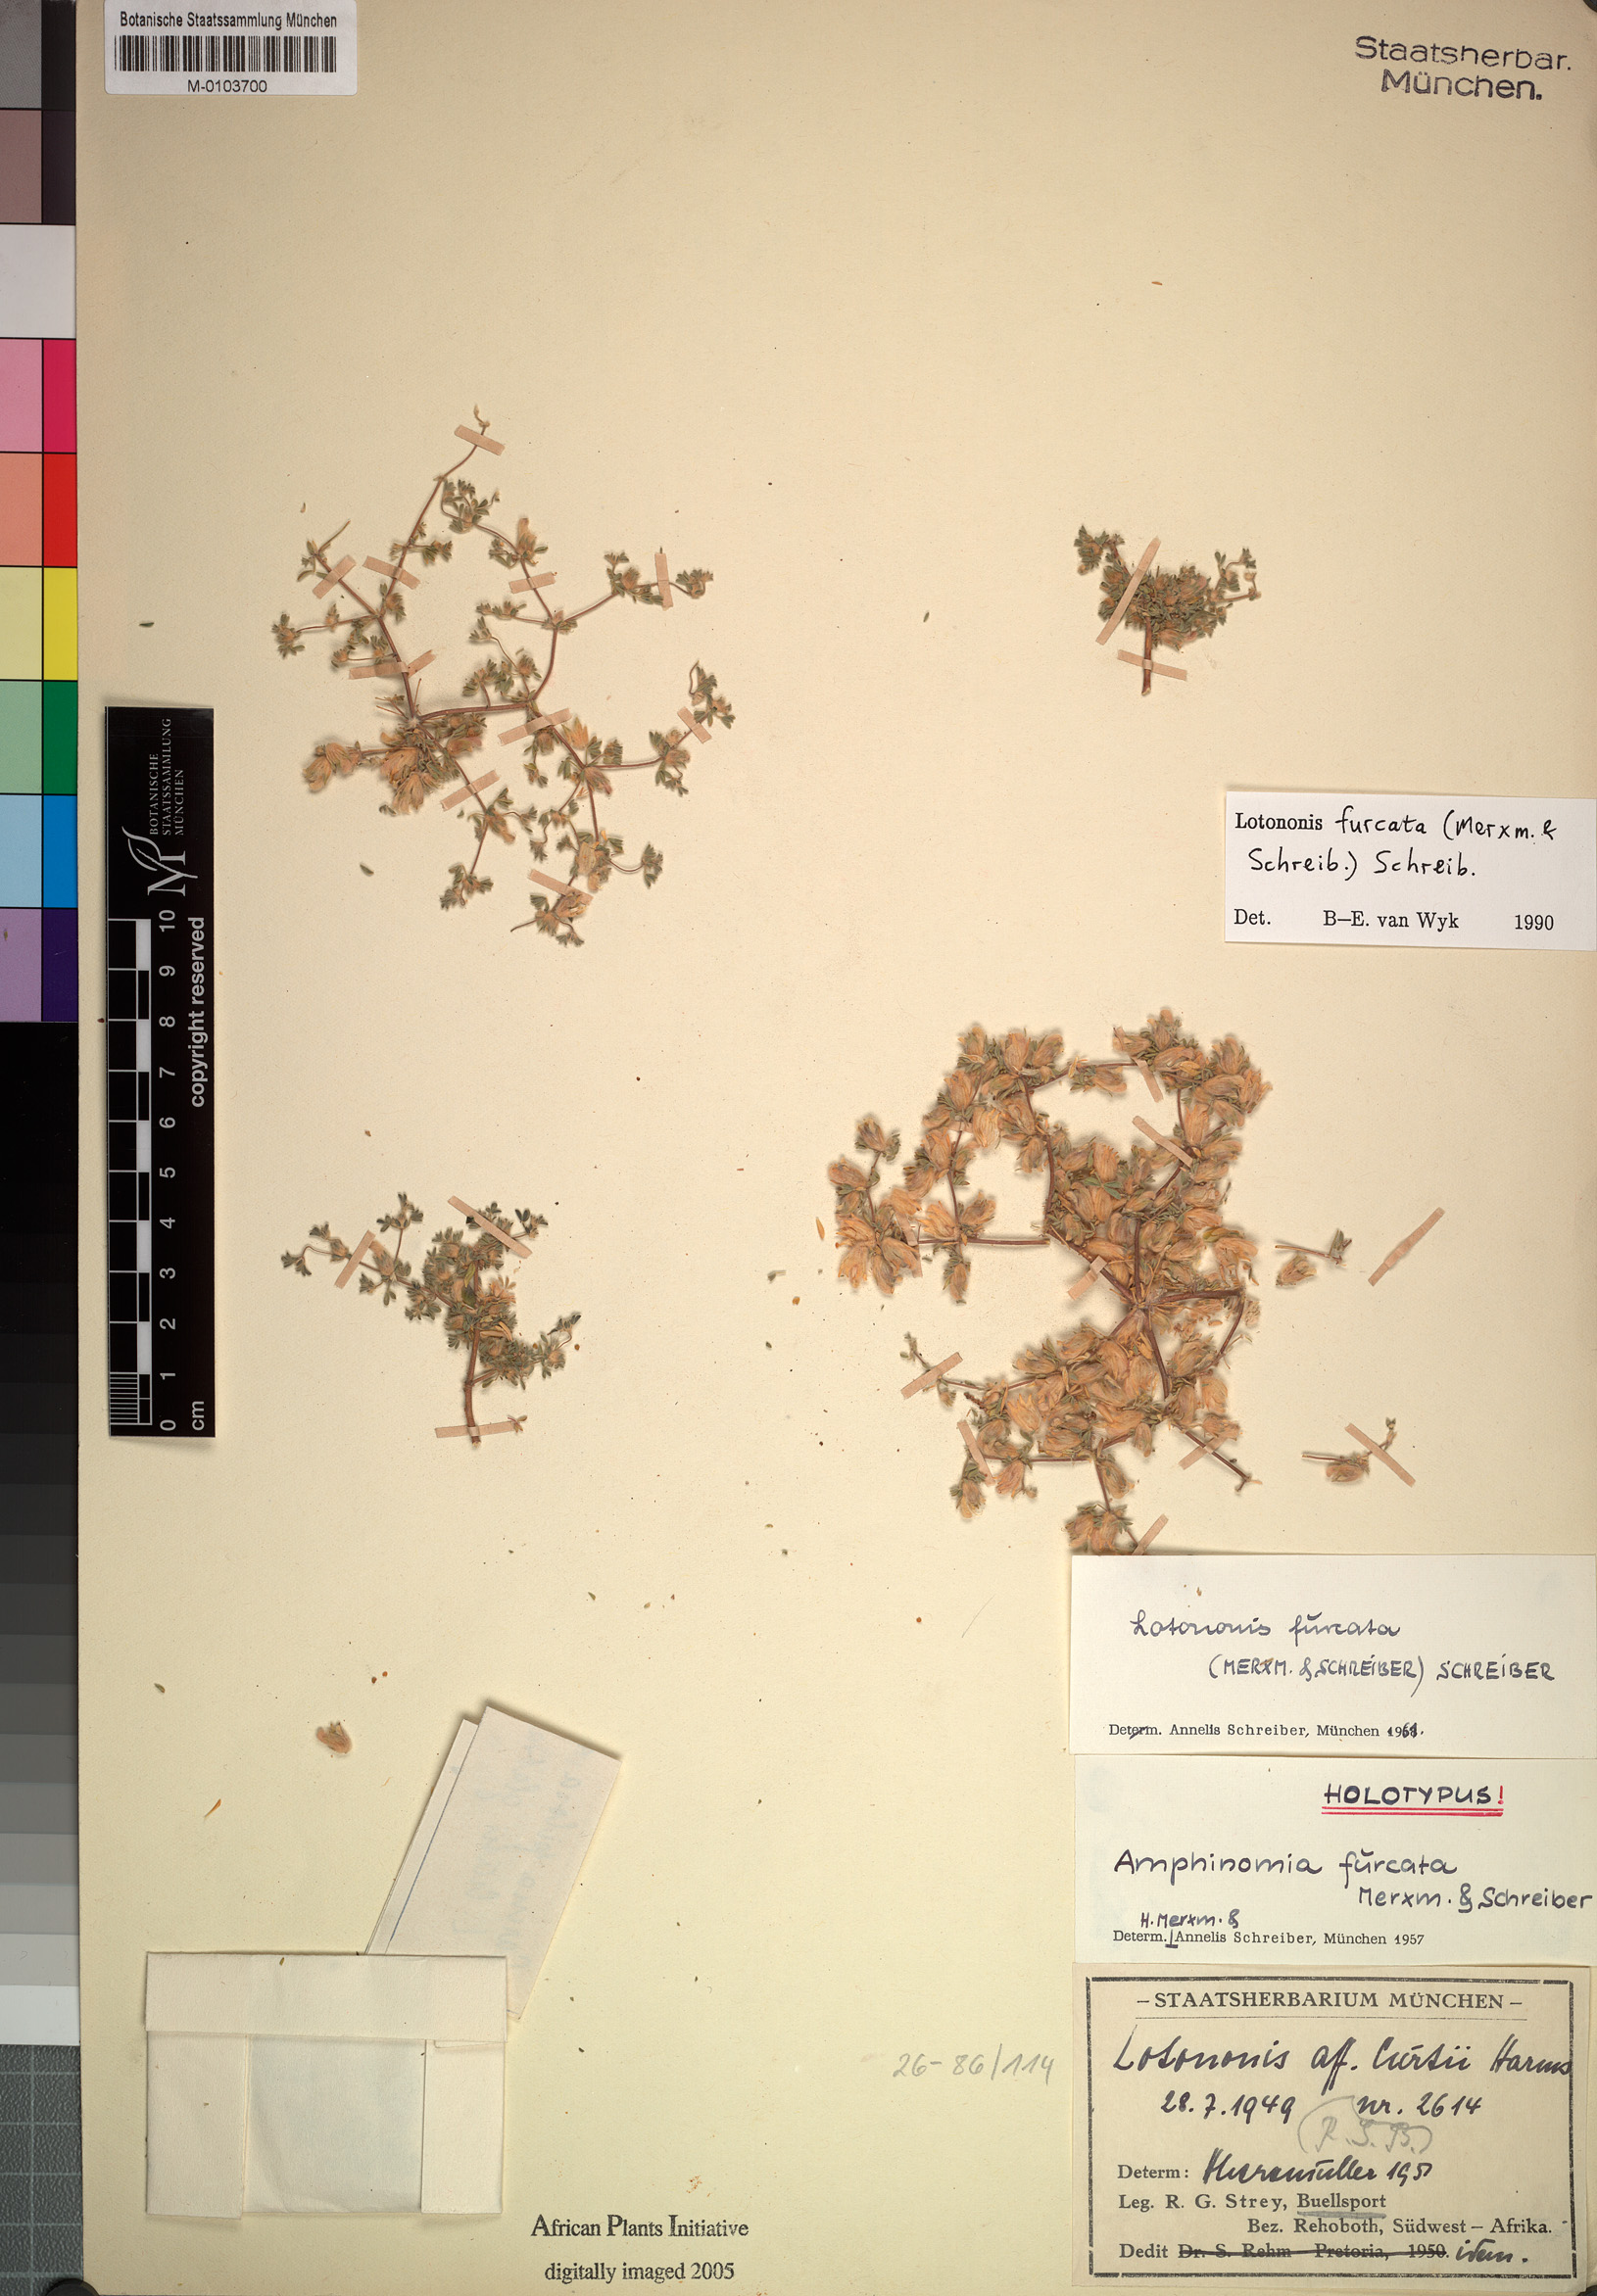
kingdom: Plantae
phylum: Tracheophyta
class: Magnoliopsida
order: Fabales
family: Fabaceae
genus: Leobordea
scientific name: Leobordea furcata
